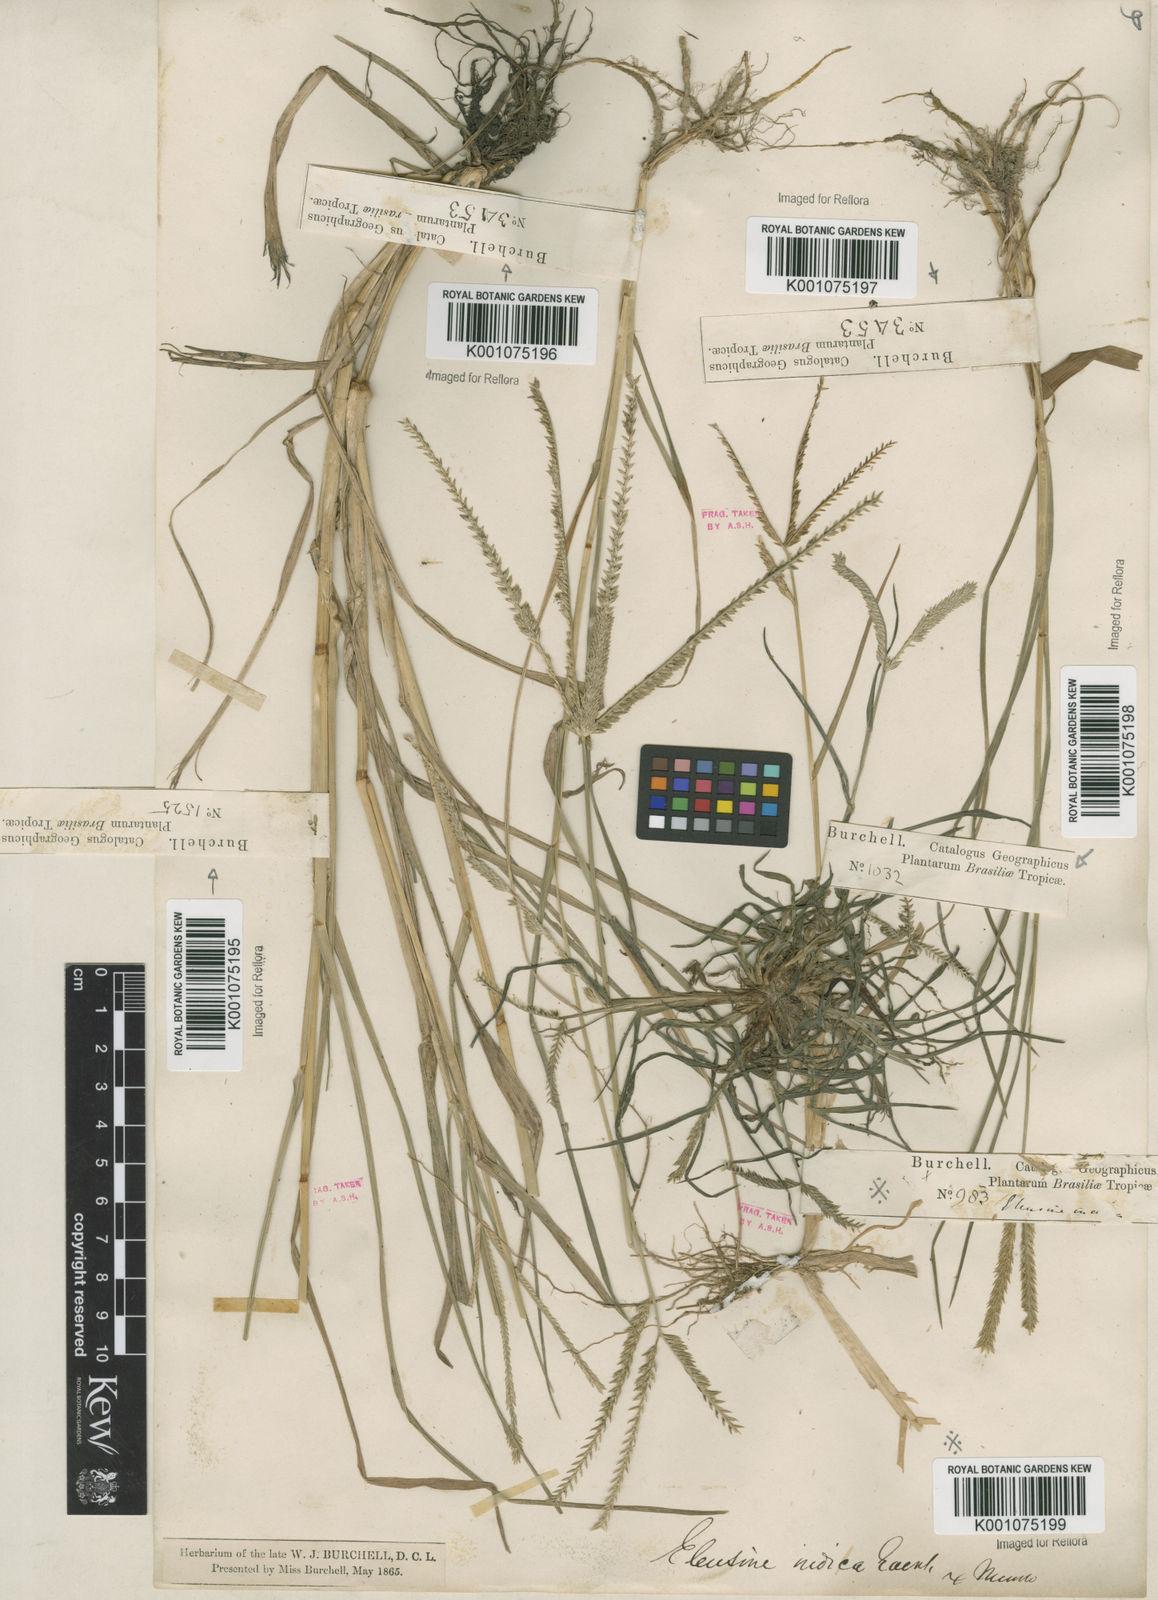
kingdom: Plantae
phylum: Tracheophyta
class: Liliopsida
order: Poales
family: Poaceae
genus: Eleusine
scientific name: Eleusine indica
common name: Yard-grass
